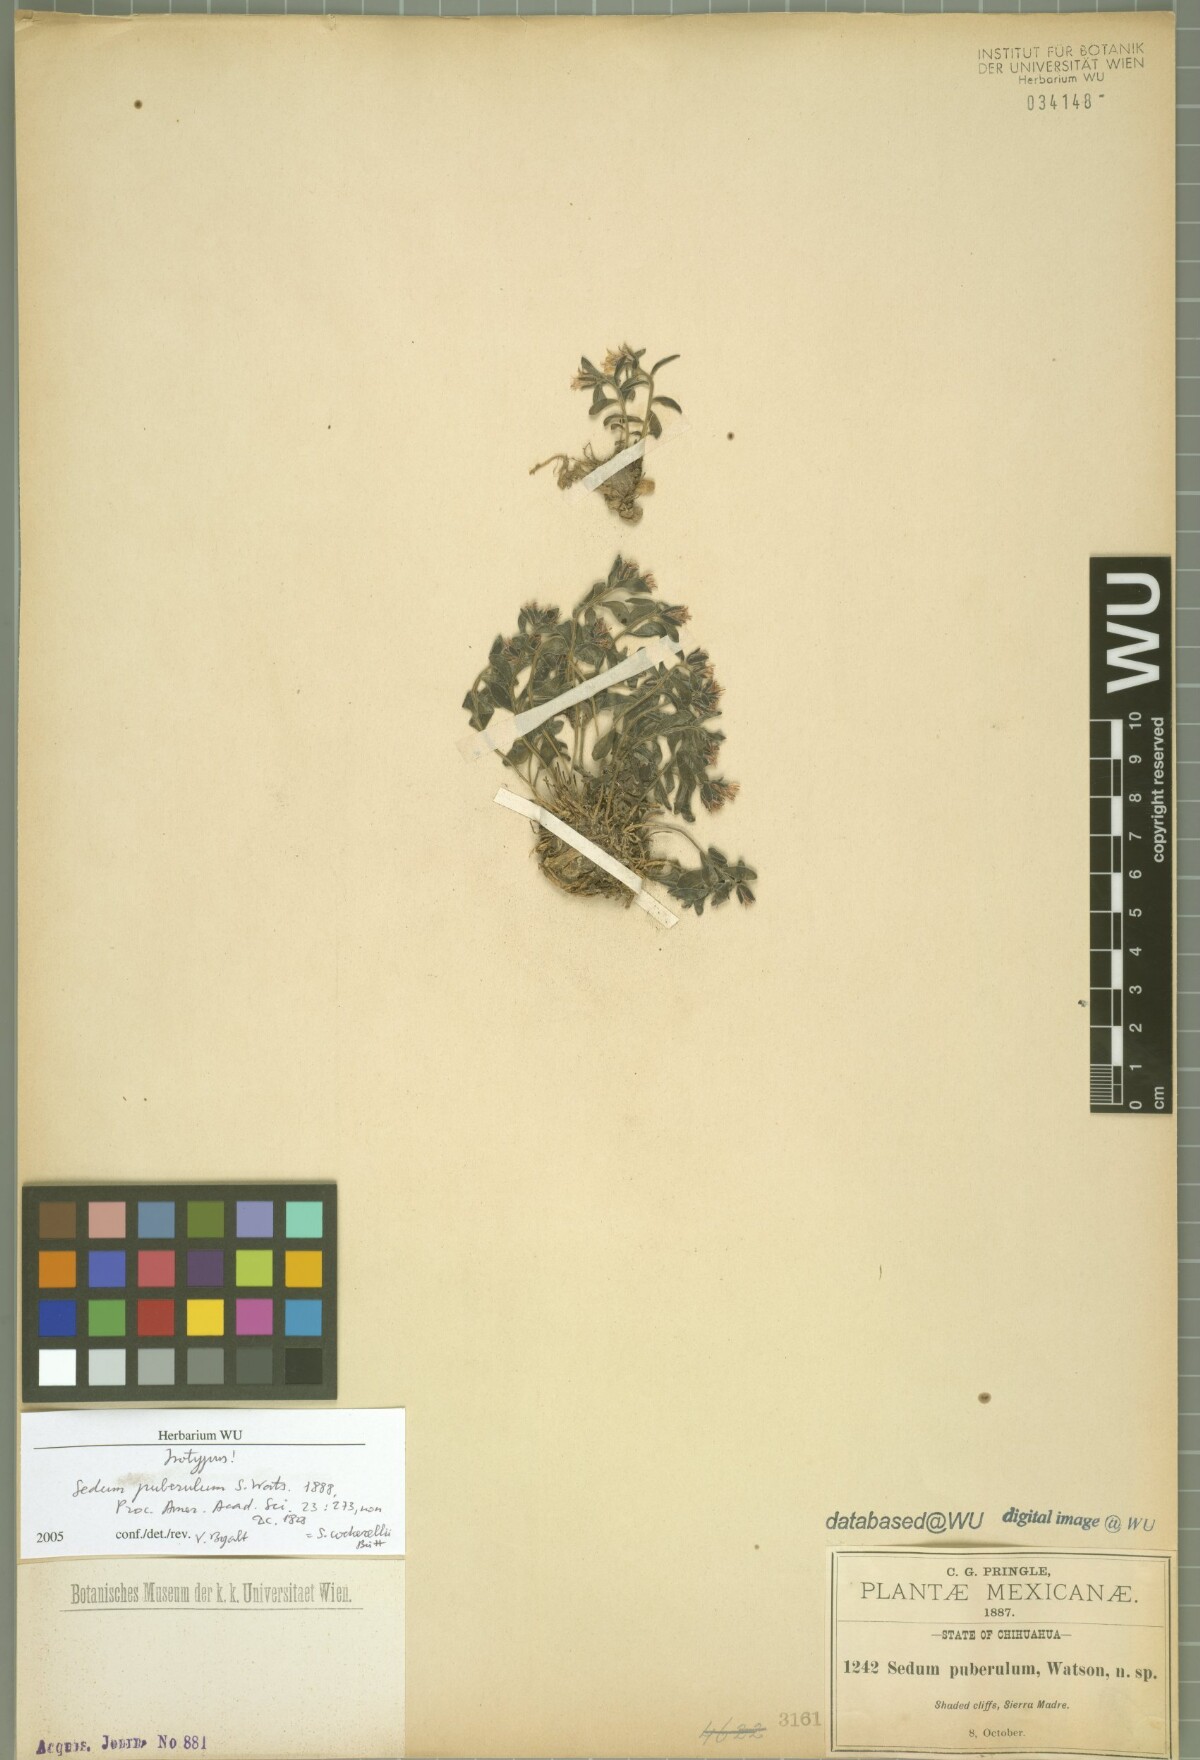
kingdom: Plantae
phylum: Tracheophyta
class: Magnoliopsida
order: Saxifragales
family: Crassulaceae
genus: Sedum
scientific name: Sedum cockerellii
